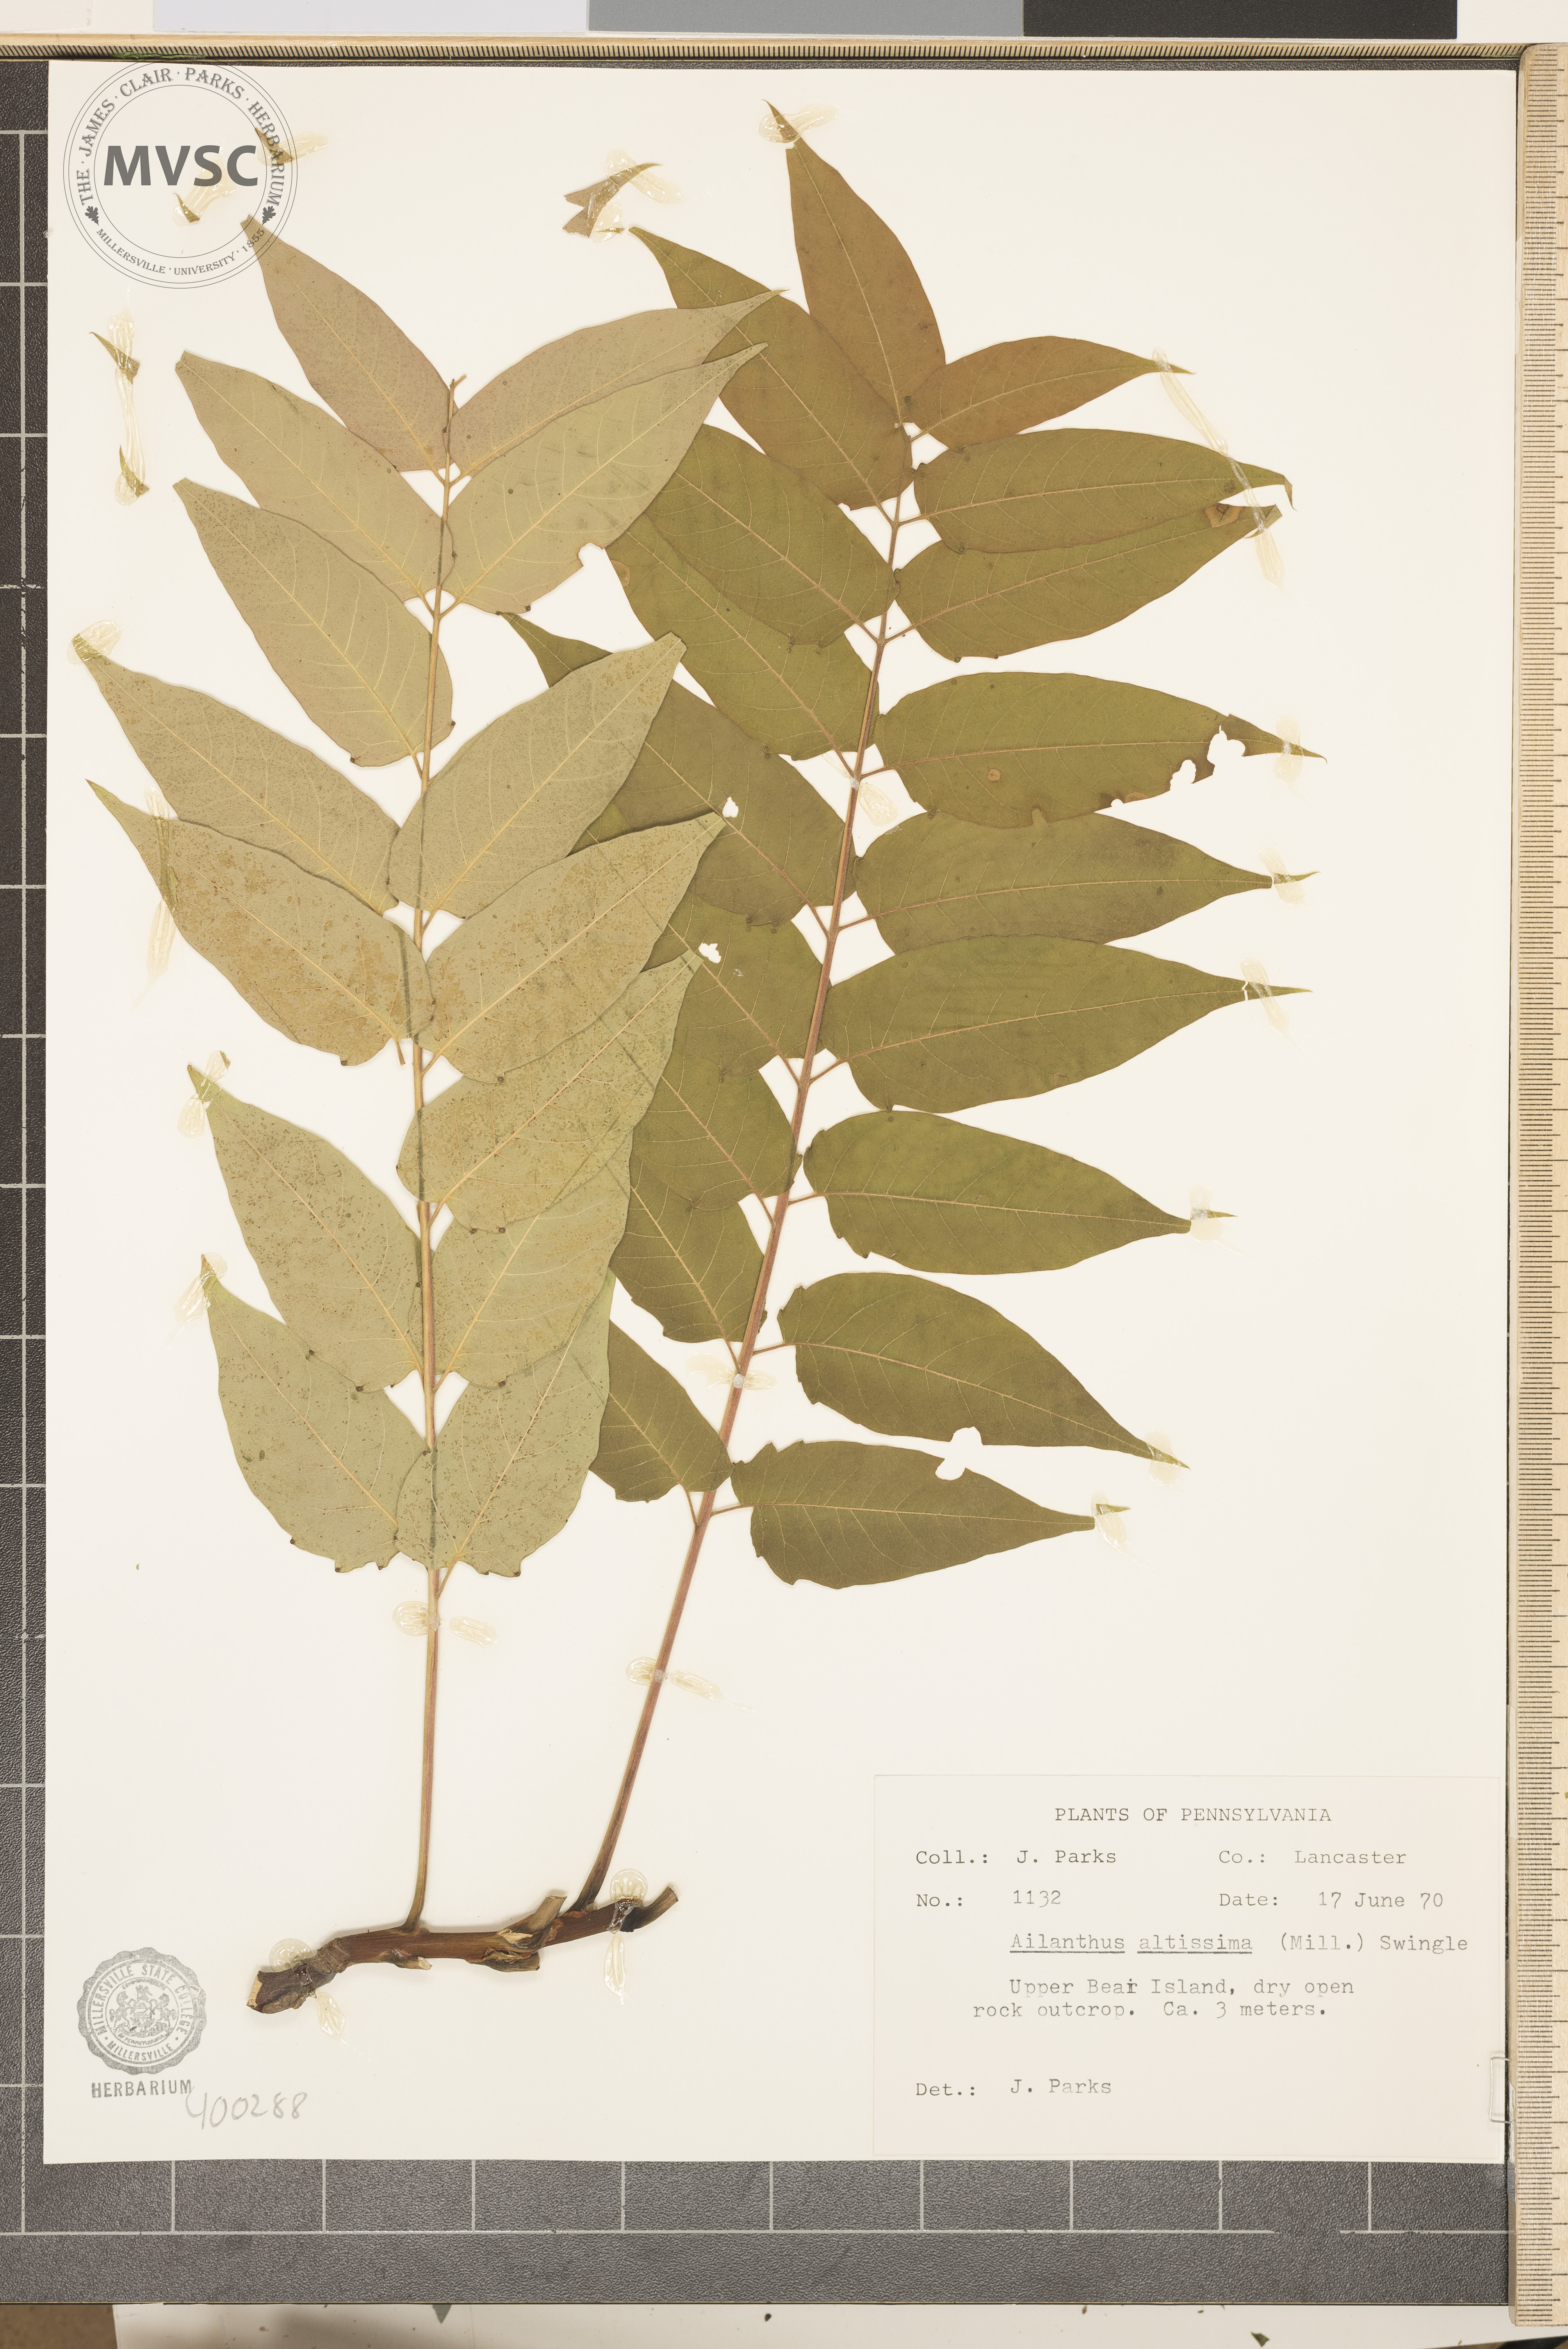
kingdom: Plantae
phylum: Tracheophyta
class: Magnoliopsida
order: Sapindales
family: Simaroubaceae
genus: Ailanthus
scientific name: Ailanthus altissima
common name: tree-of-heaven
